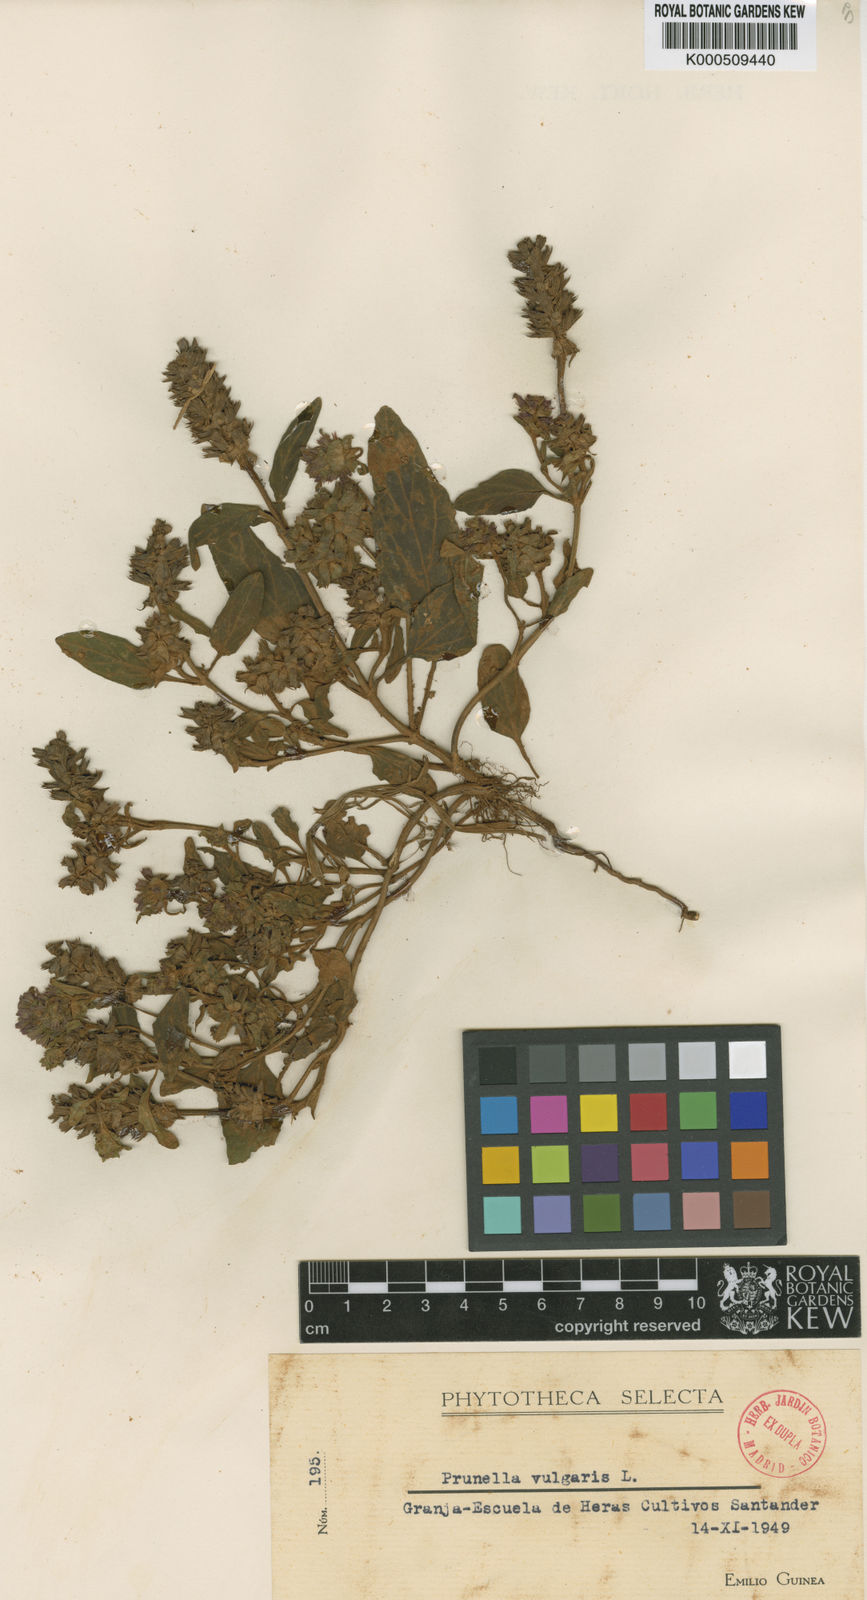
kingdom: Plantae
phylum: Tracheophyta
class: Magnoliopsida
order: Lamiales
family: Lamiaceae
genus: Prunella
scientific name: Prunella vulgaris
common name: Heal-all
